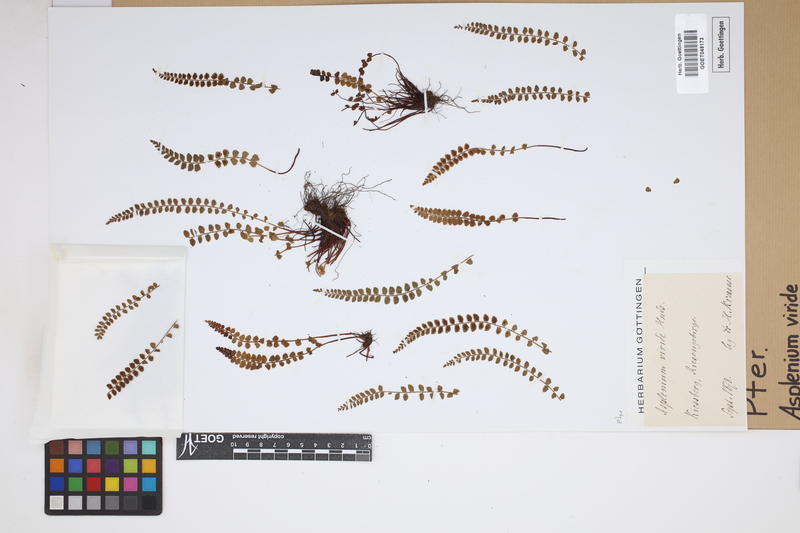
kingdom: Plantae
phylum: Tracheophyta
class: Polypodiopsida
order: Polypodiales
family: Aspleniaceae
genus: Asplenium
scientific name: Asplenium viride
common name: Green spleenwort
